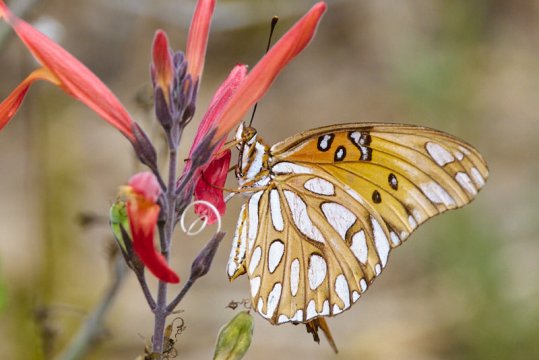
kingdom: Animalia
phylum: Arthropoda
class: Insecta
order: Lepidoptera
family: Nymphalidae
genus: Dione
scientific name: Dione vanillae
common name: Gulf Fritillary
